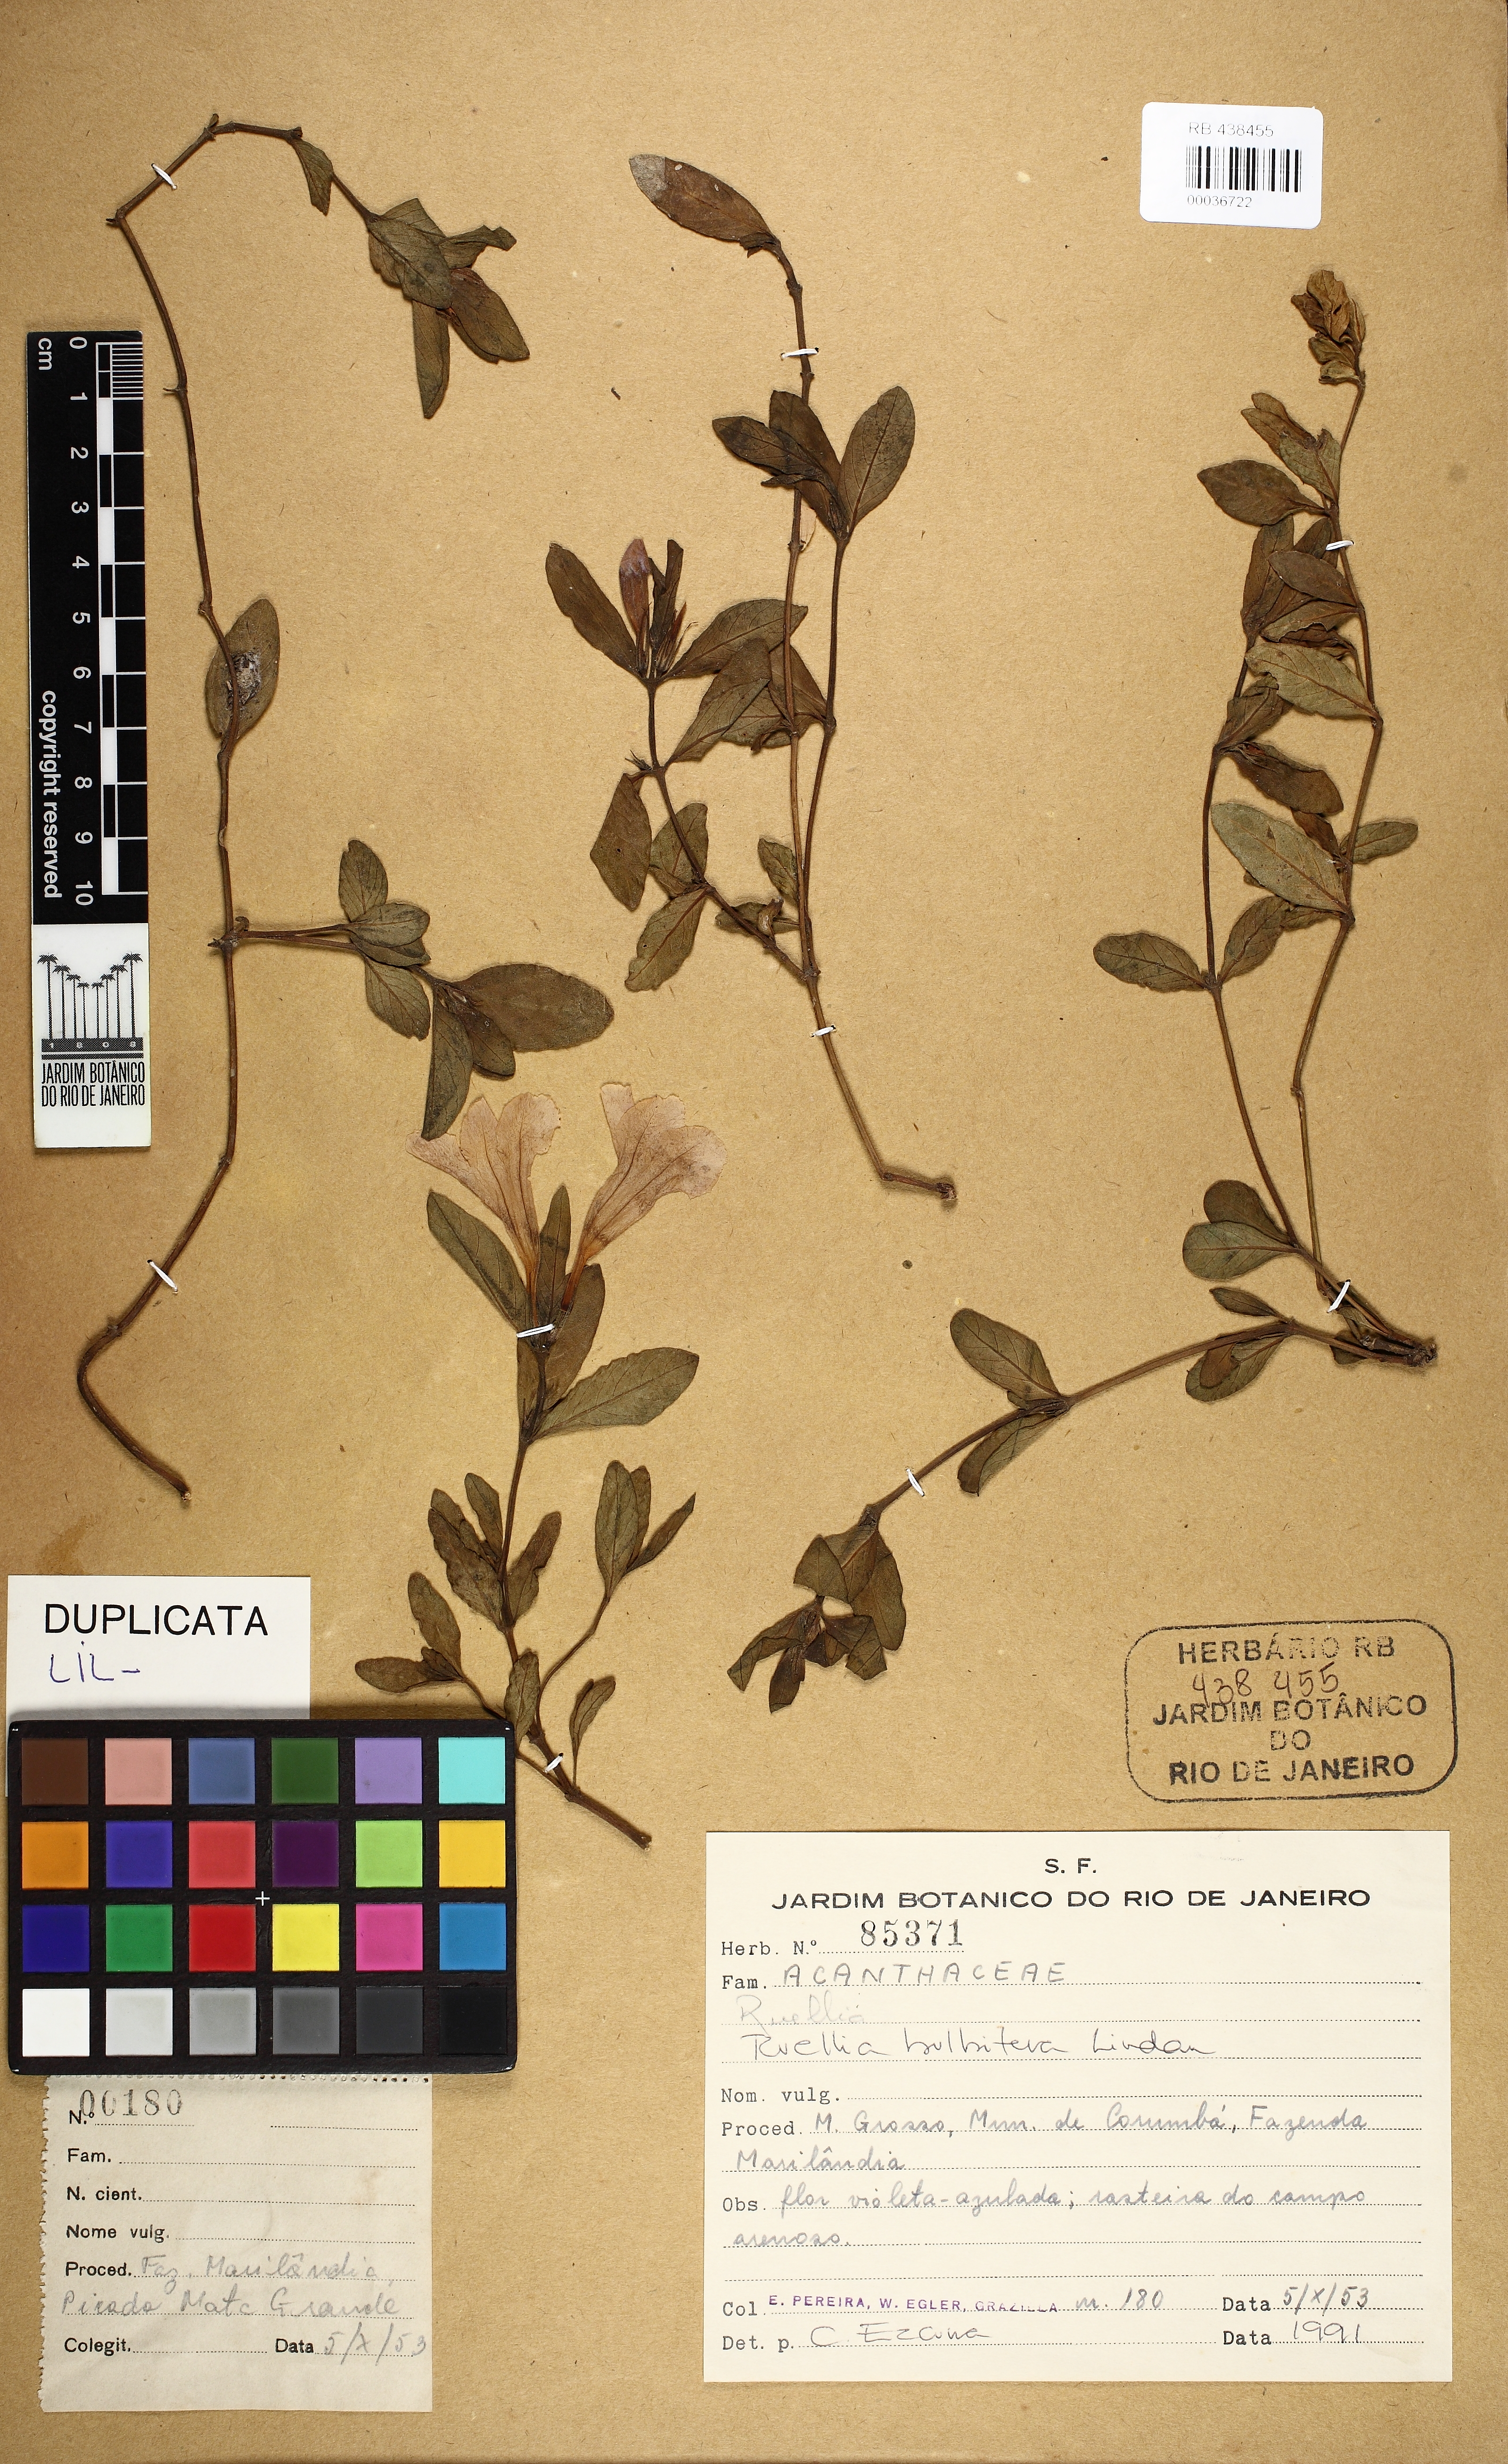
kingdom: Plantae
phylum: Tracheophyta
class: Magnoliopsida
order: Lamiales
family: Acanthaceae
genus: Ruellia
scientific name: Ruellia bulbifera
